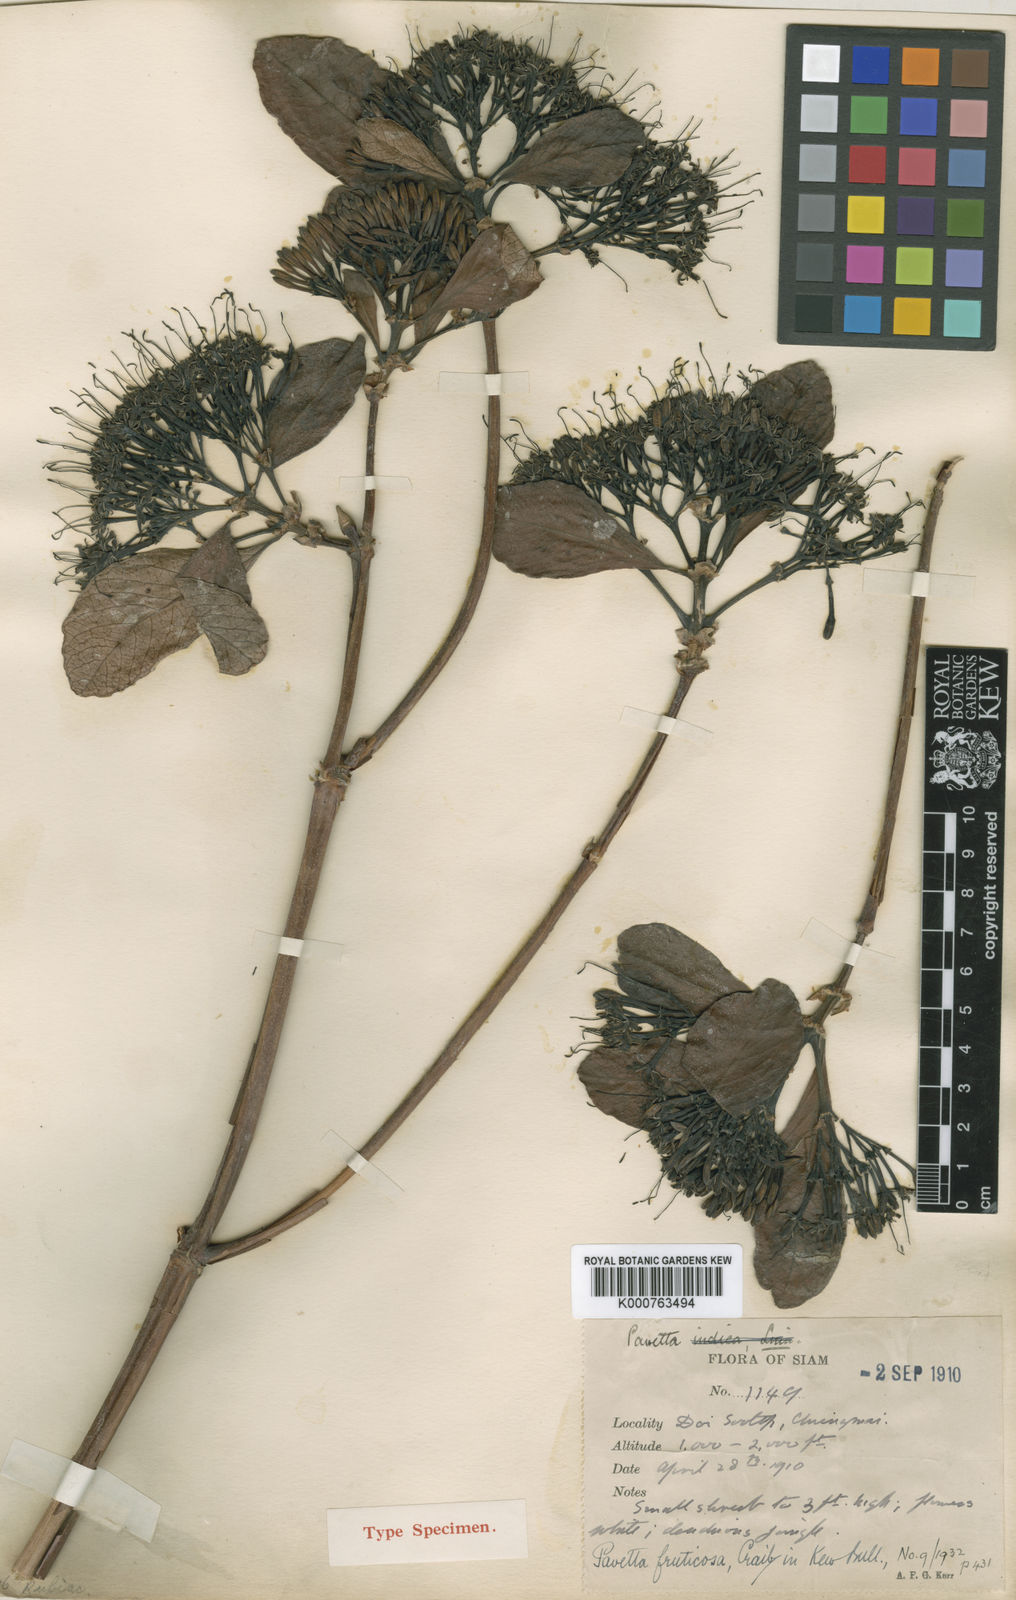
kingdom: Plantae
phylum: Tracheophyta
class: Magnoliopsida
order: Gentianales
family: Rubiaceae
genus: Pavetta
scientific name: Pavetta fruticosa
